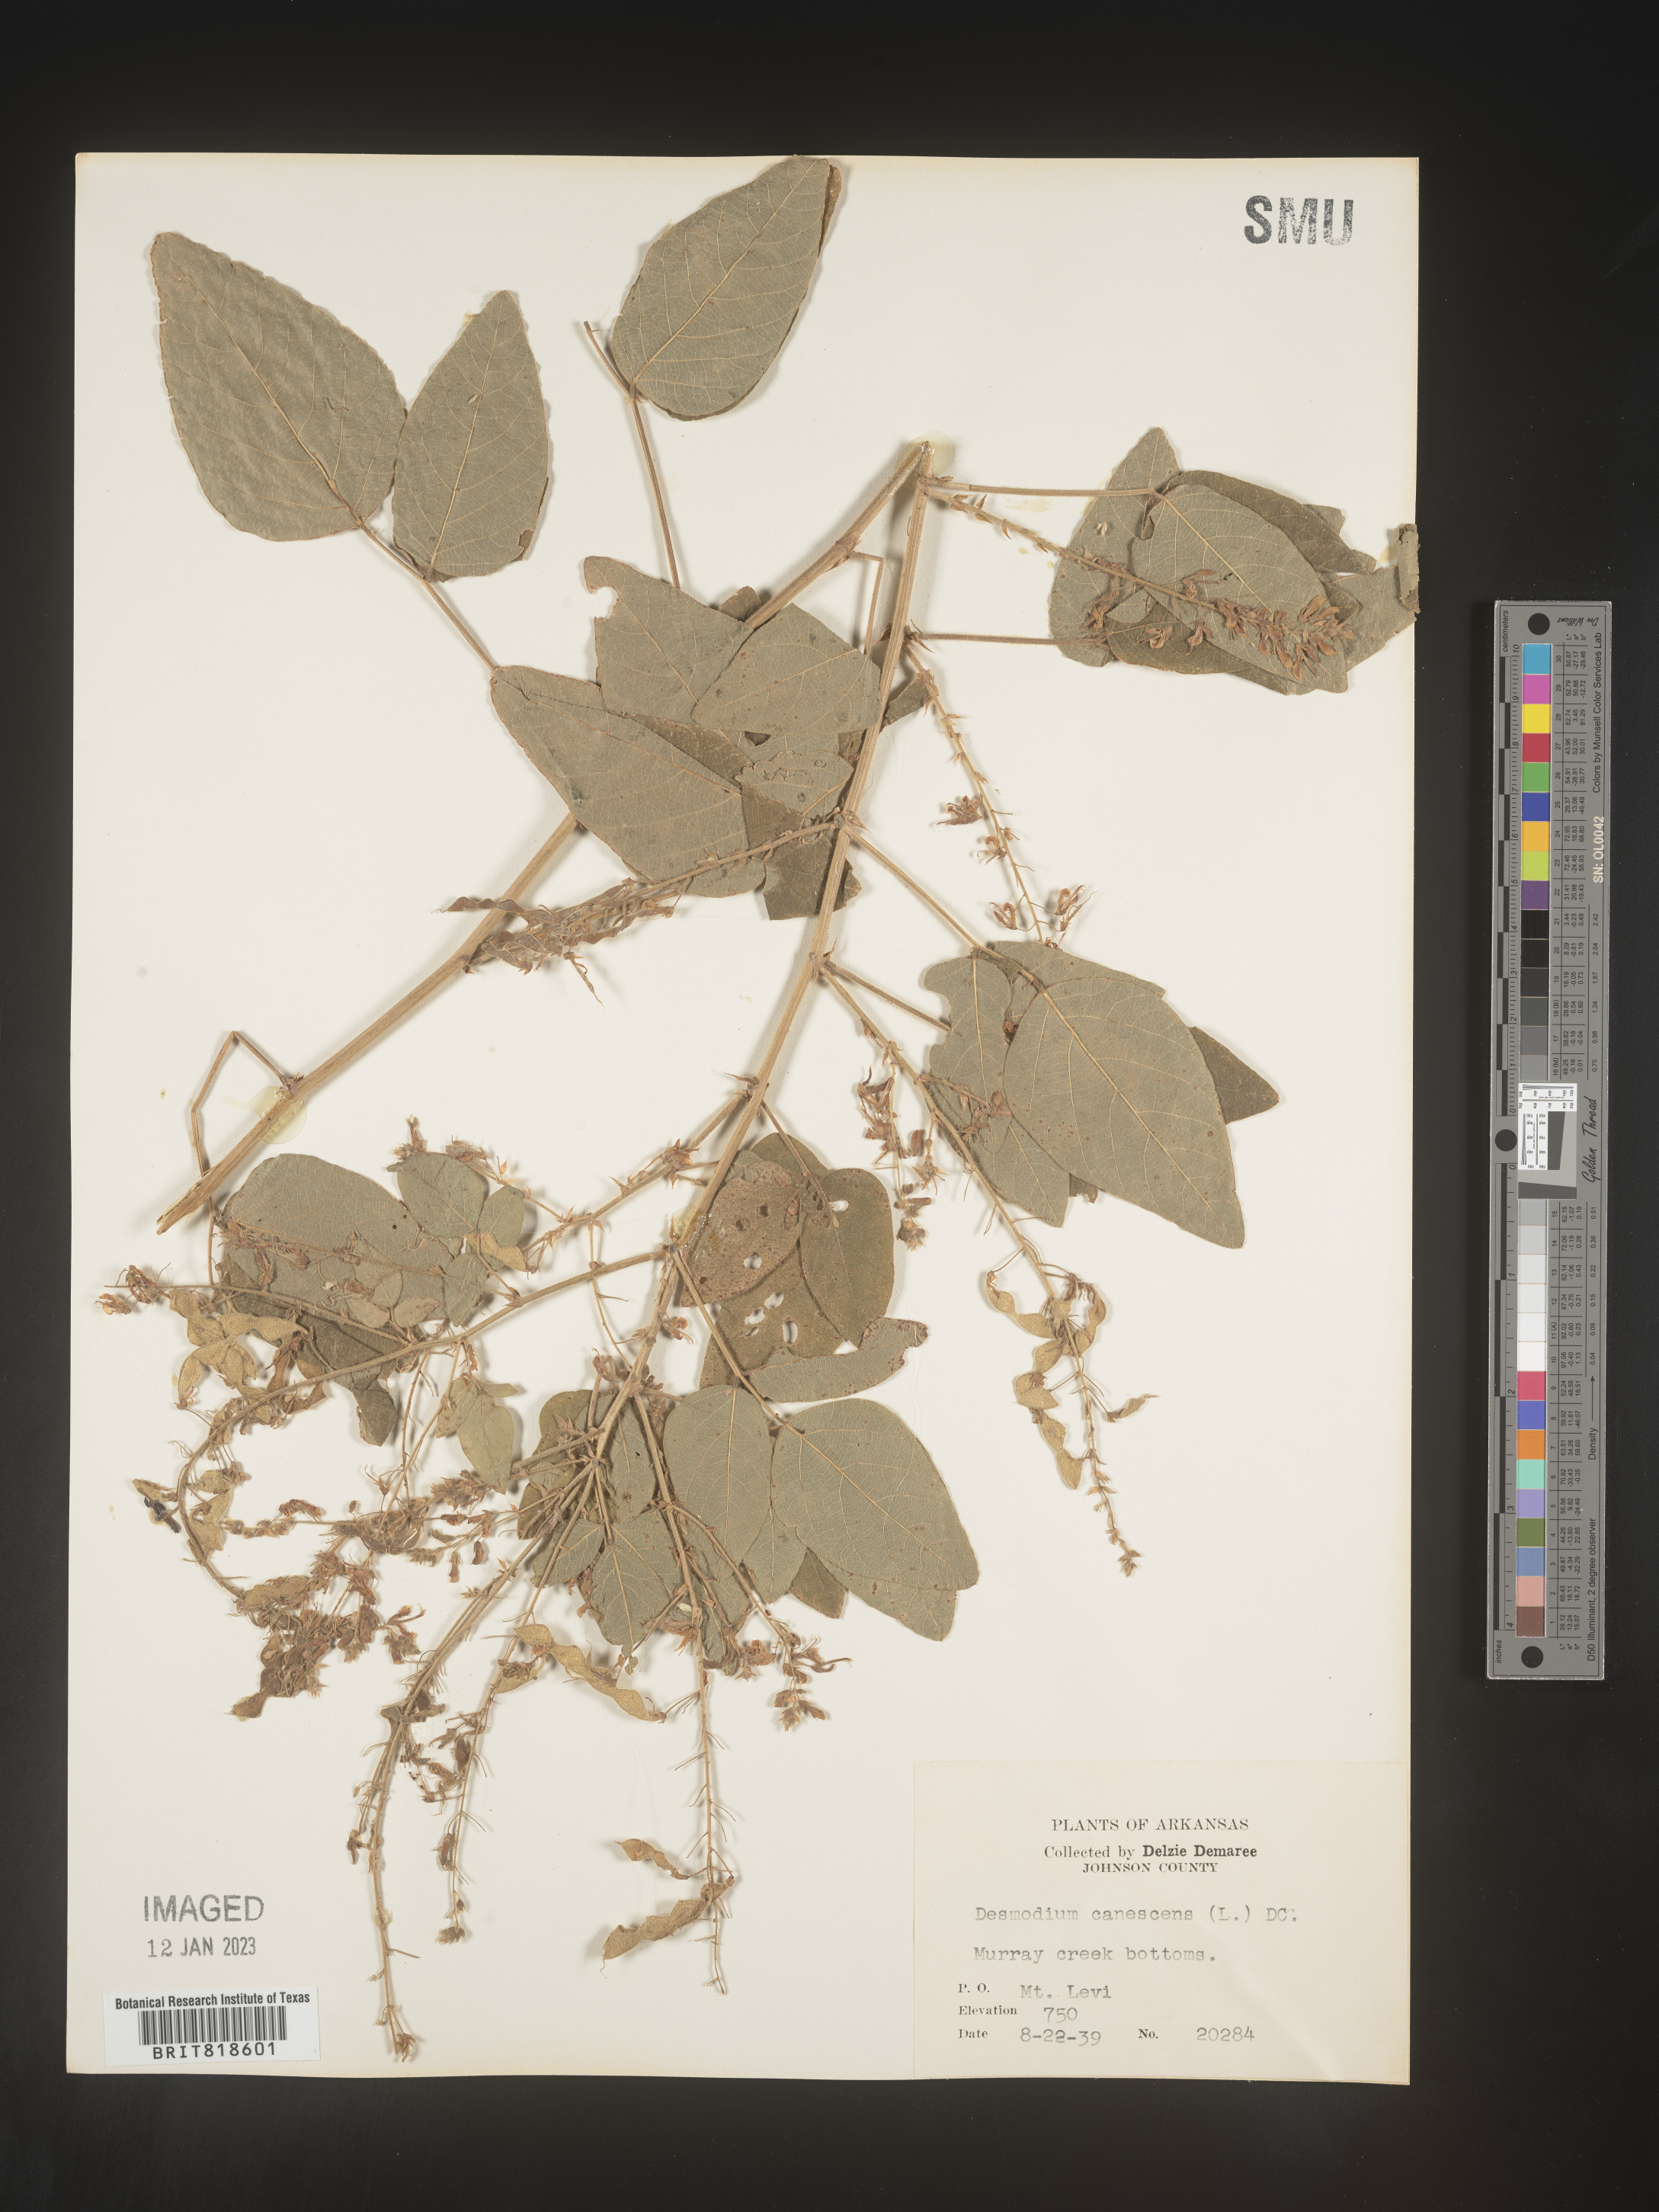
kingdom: Plantae
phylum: Tracheophyta
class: Magnoliopsida
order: Fabales
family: Fabaceae
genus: Desmodium
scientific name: Desmodium canescens
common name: Hoary tick-clover
